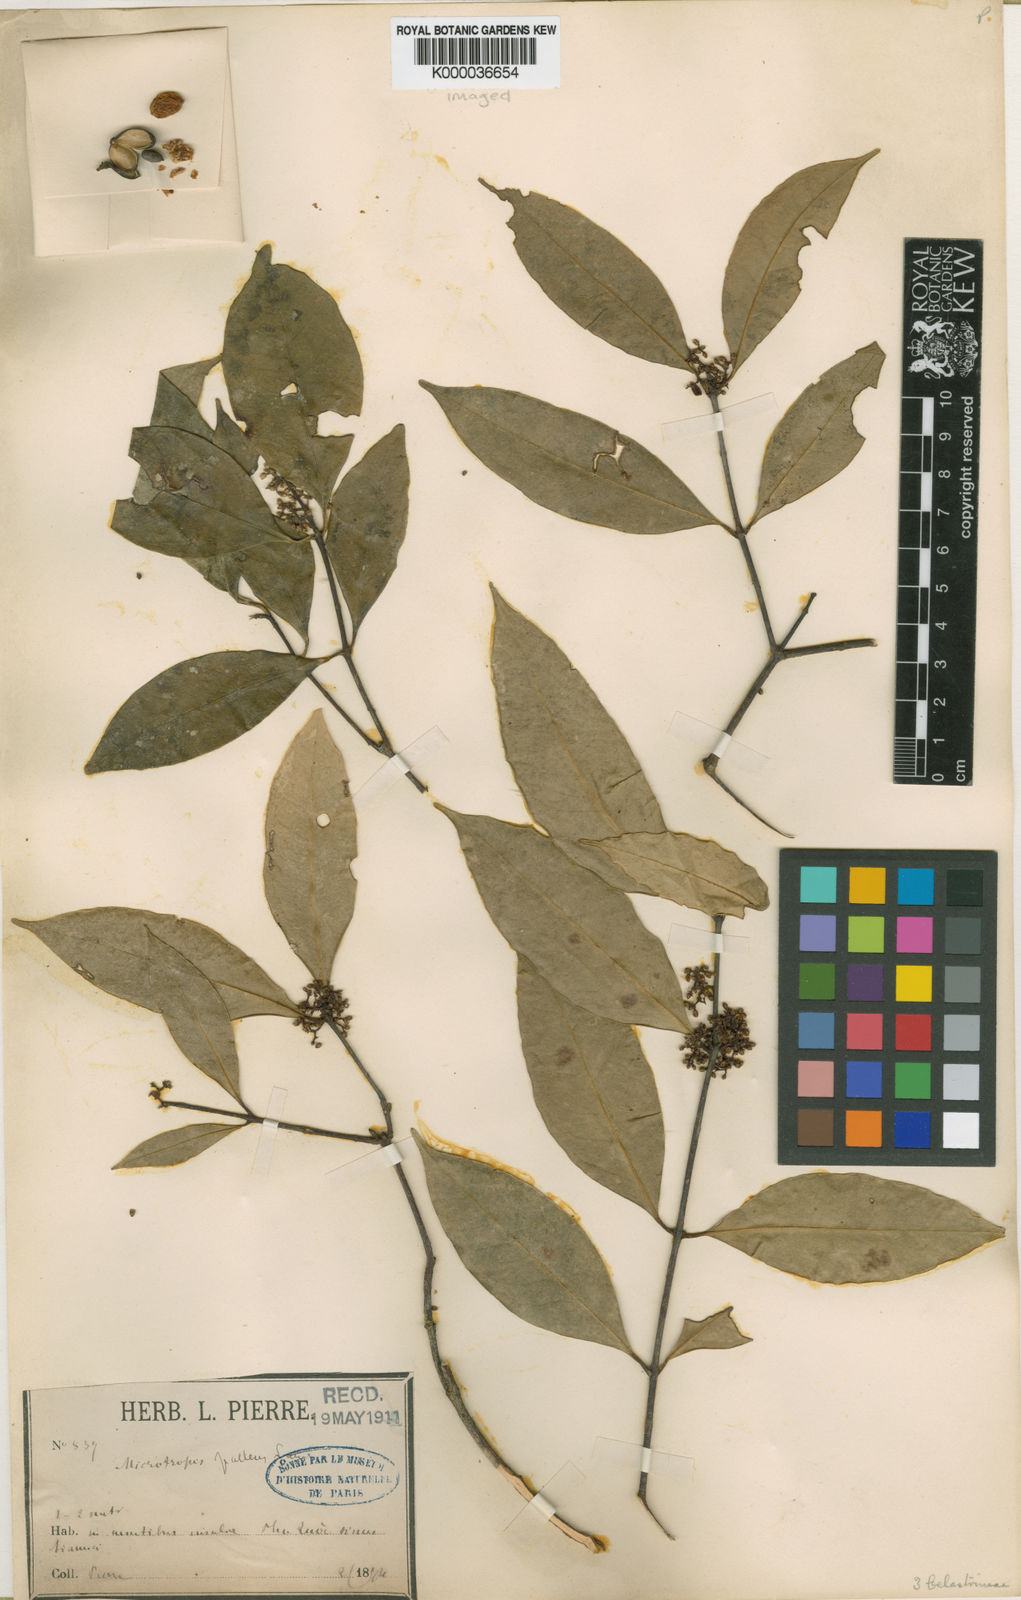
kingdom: Plantae
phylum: Tracheophyta
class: Magnoliopsida
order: Celastrales
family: Celastraceae
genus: Microtropis
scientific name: Microtropis pallens
